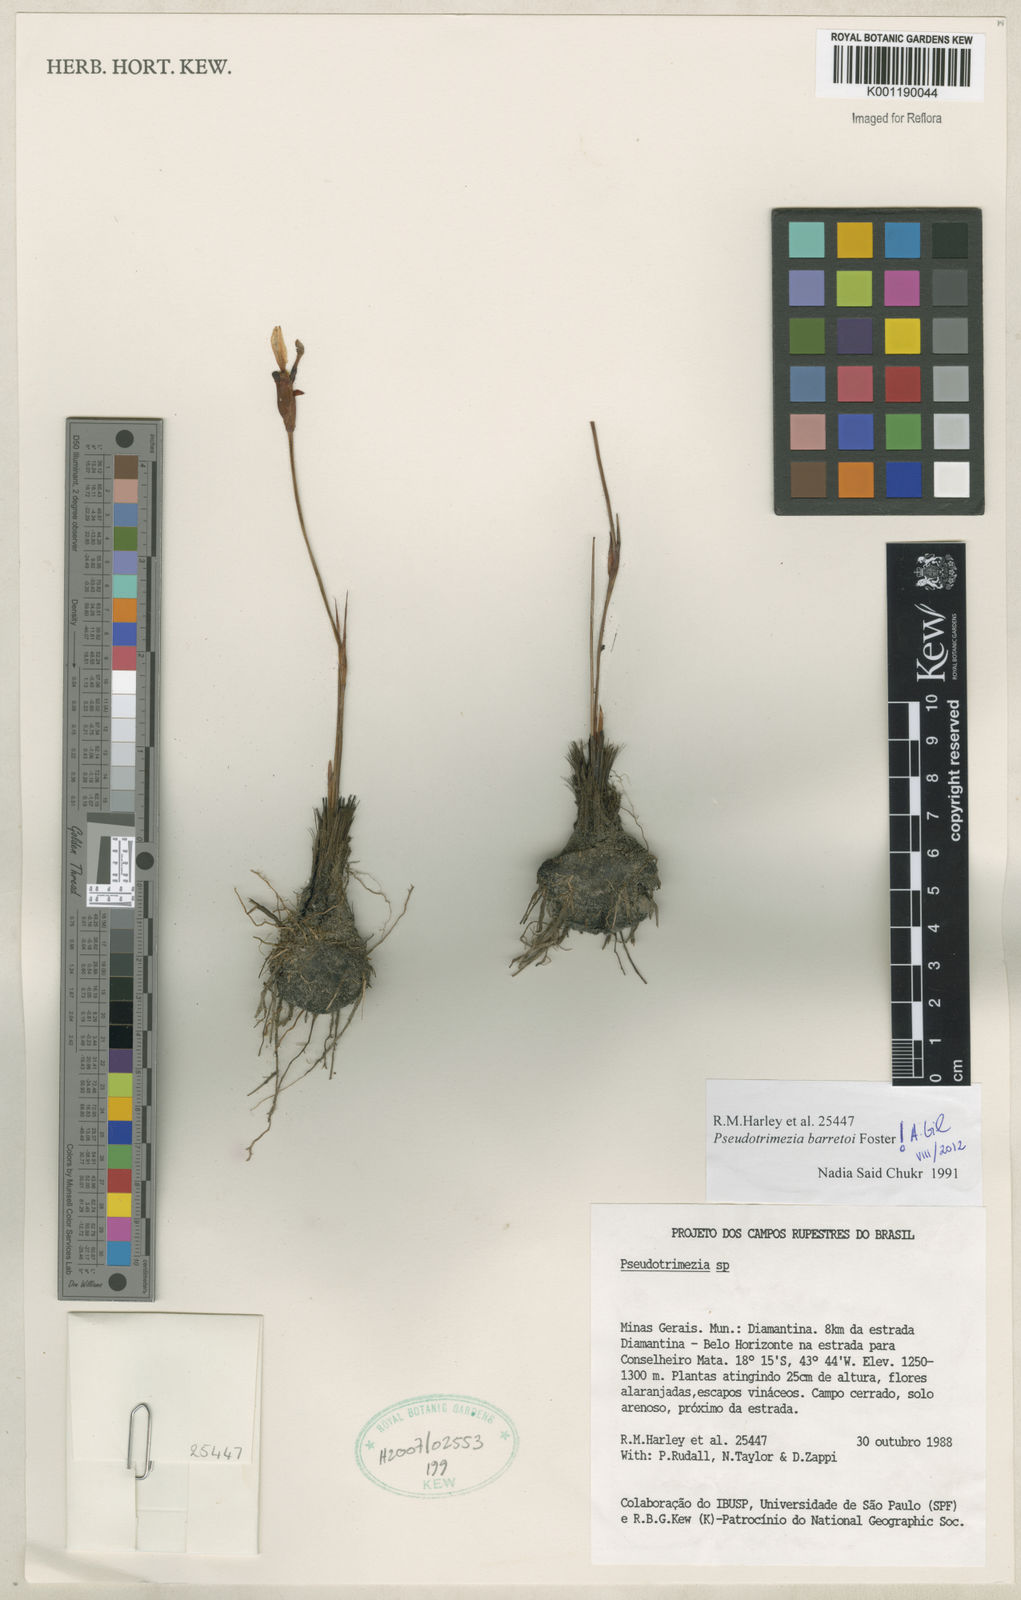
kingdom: Plantae
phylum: Tracheophyta
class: Liliopsida
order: Asparagales
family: Iridaceae
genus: Trimezia
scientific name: Trimezia barretoi
